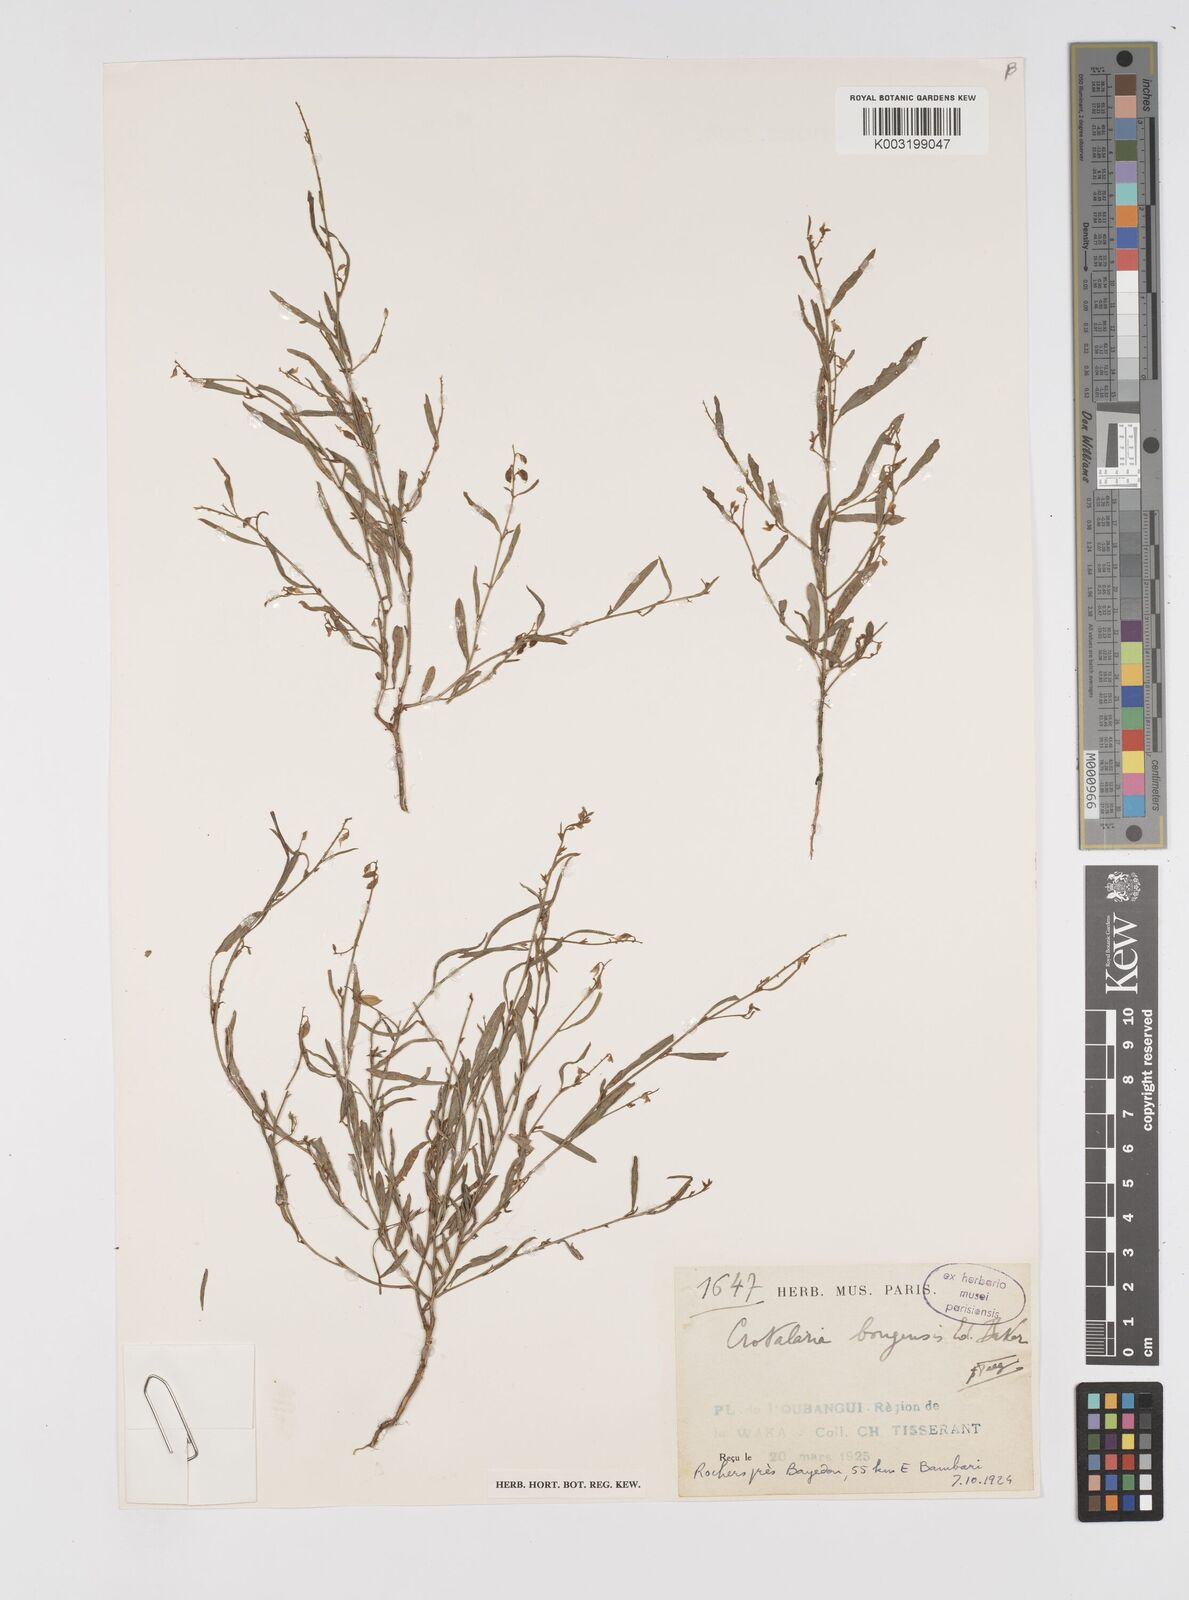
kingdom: Plantae
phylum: Tracheophyta
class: Magnoliopsida
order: Fabales
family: Fabaceae
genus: Crotalaria
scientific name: Crotalaria bongensis
